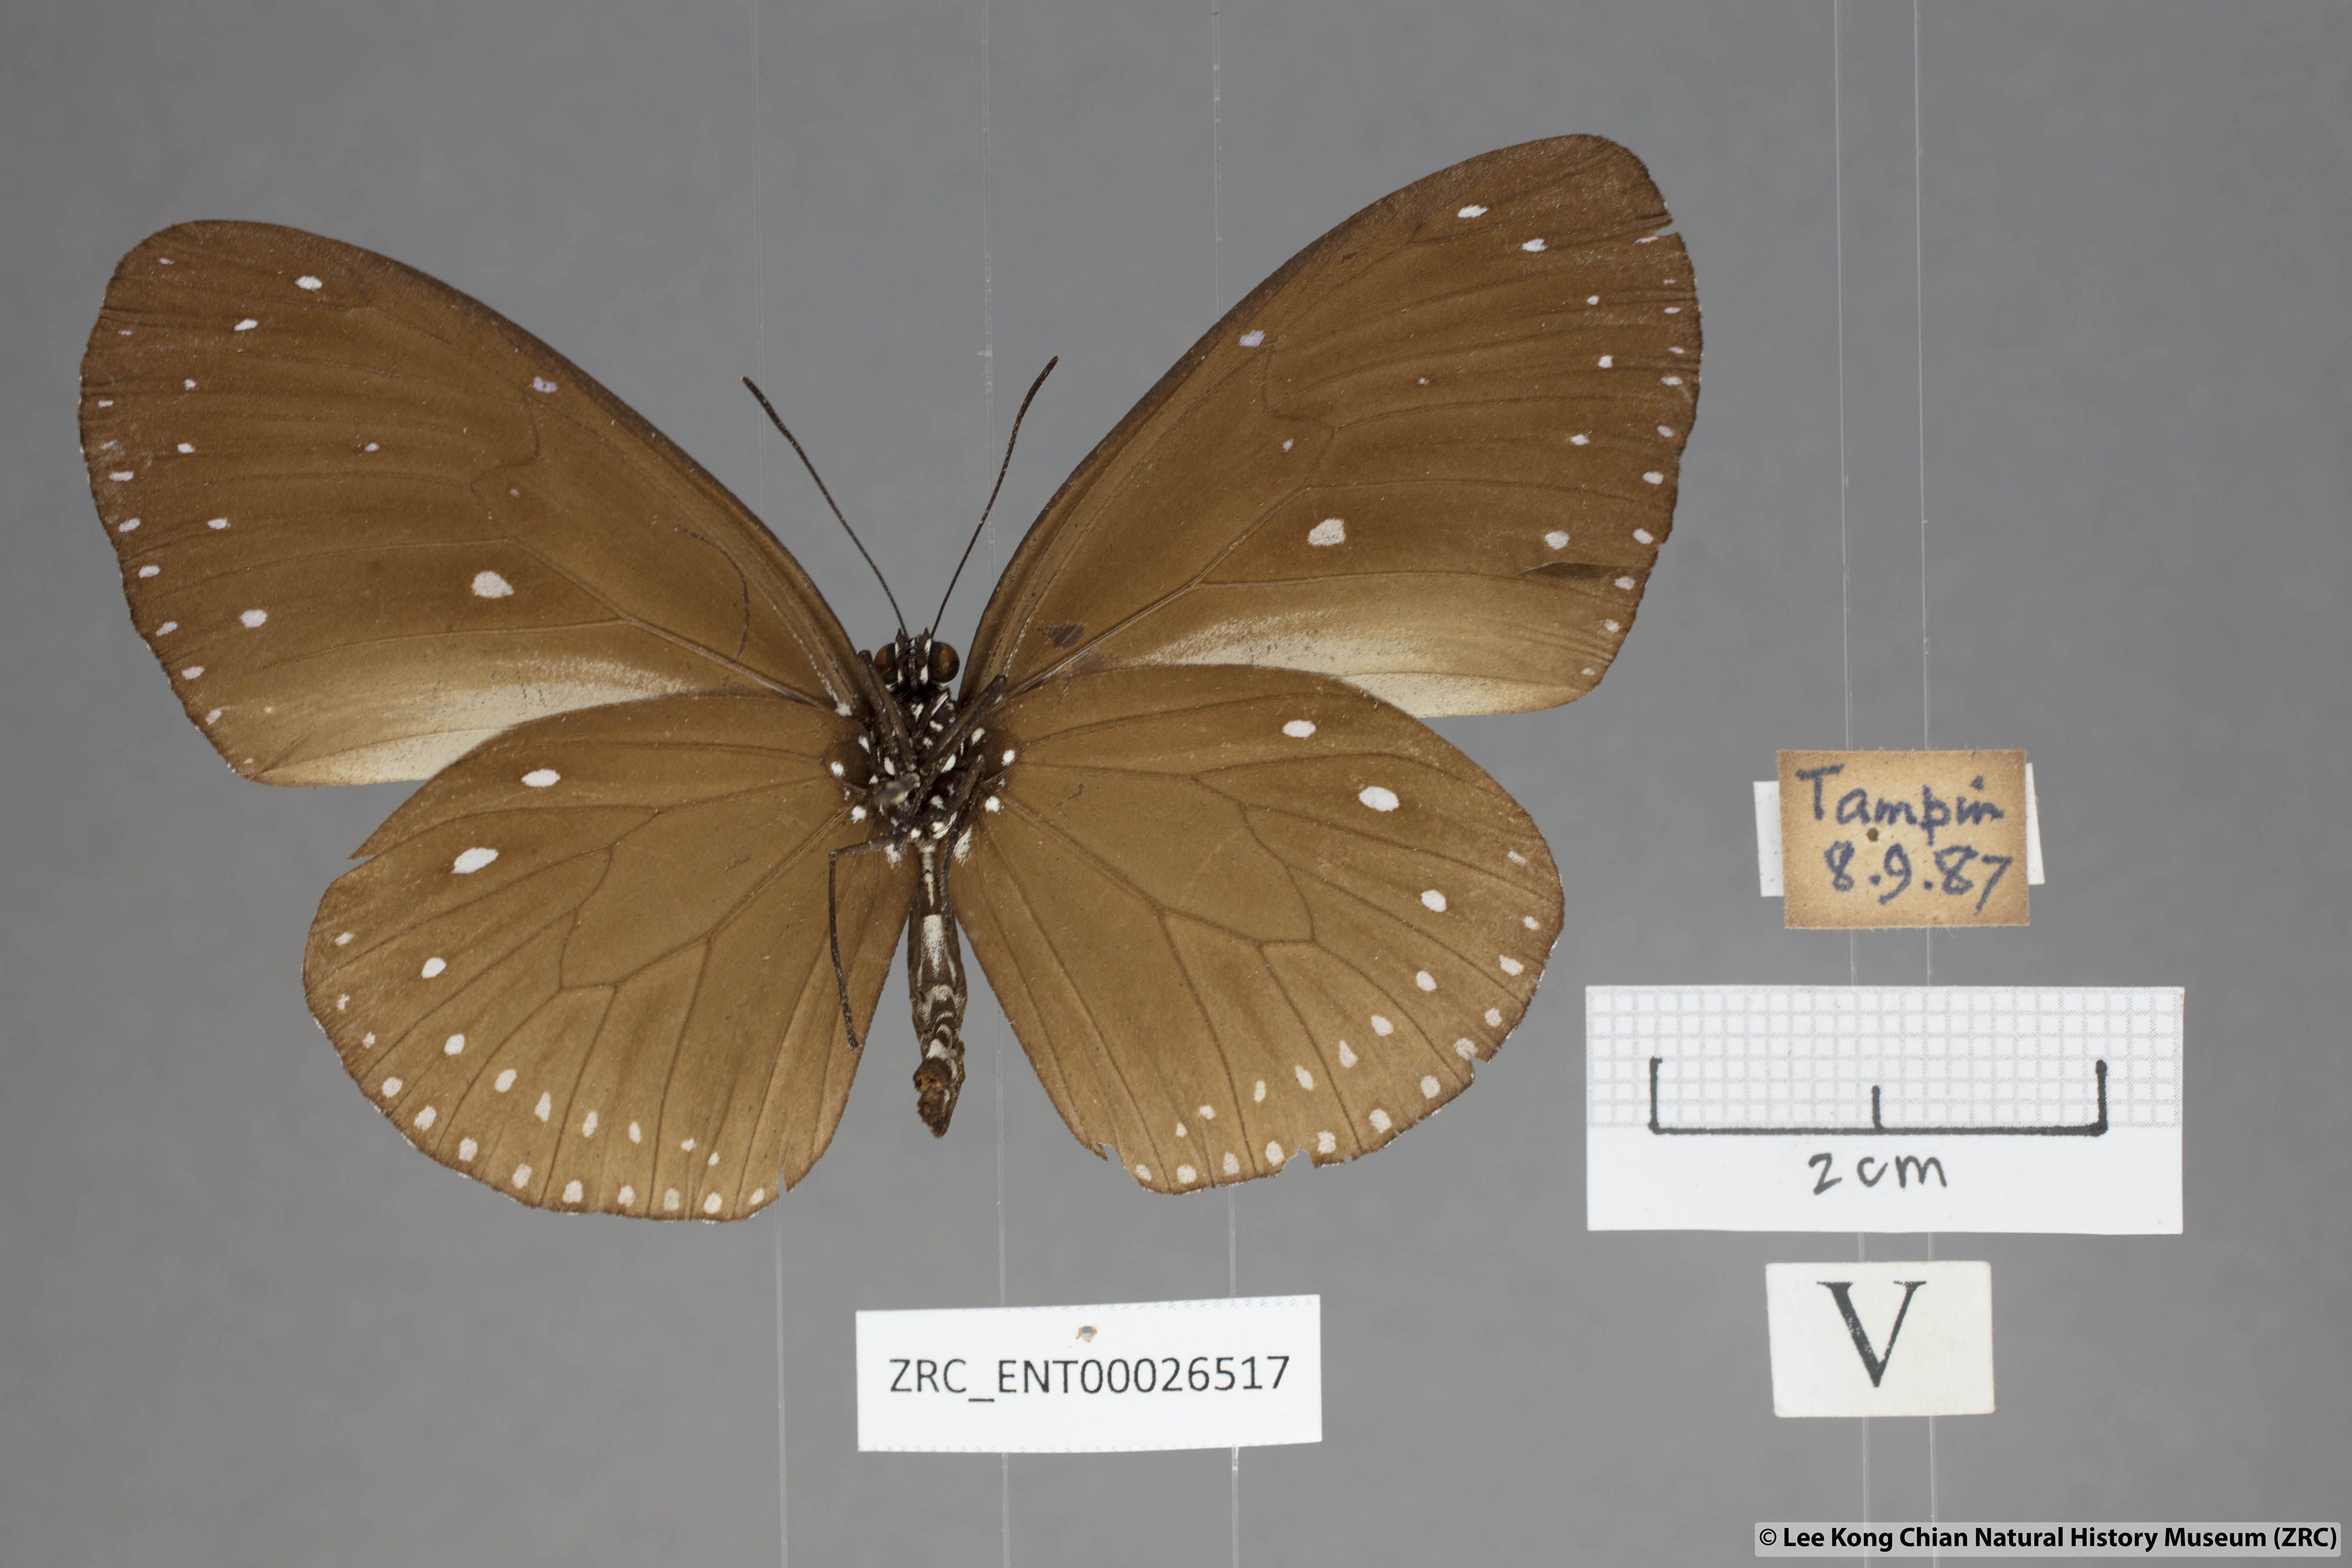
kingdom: Animalia
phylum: Arthropoda
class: Insecta
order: Lepidoptera
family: Nymphalidae
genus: Euploea
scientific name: Euploea tulliolus
